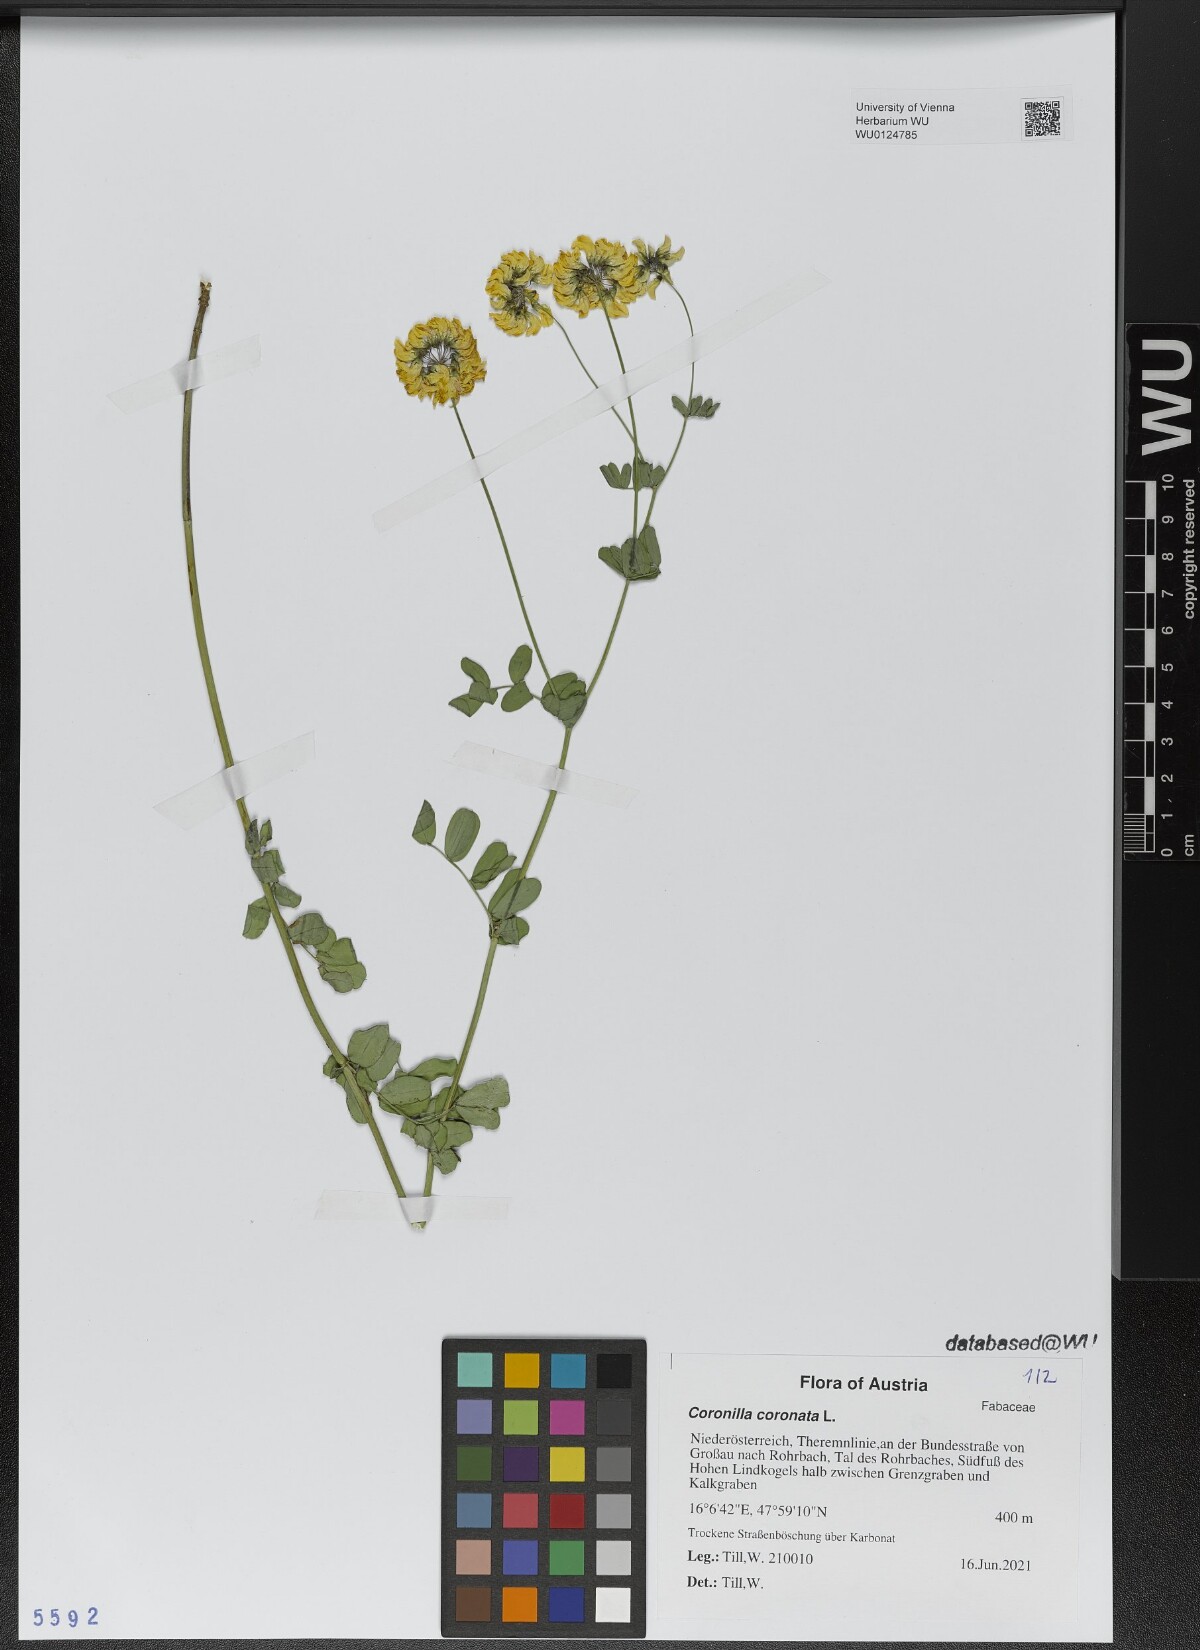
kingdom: Plantae
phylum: Tracheophyta
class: Magnoliopsida
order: Fabales
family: Fabaceae
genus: Coronilla
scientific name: Coronilla coronata
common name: Scorpion-vetch
